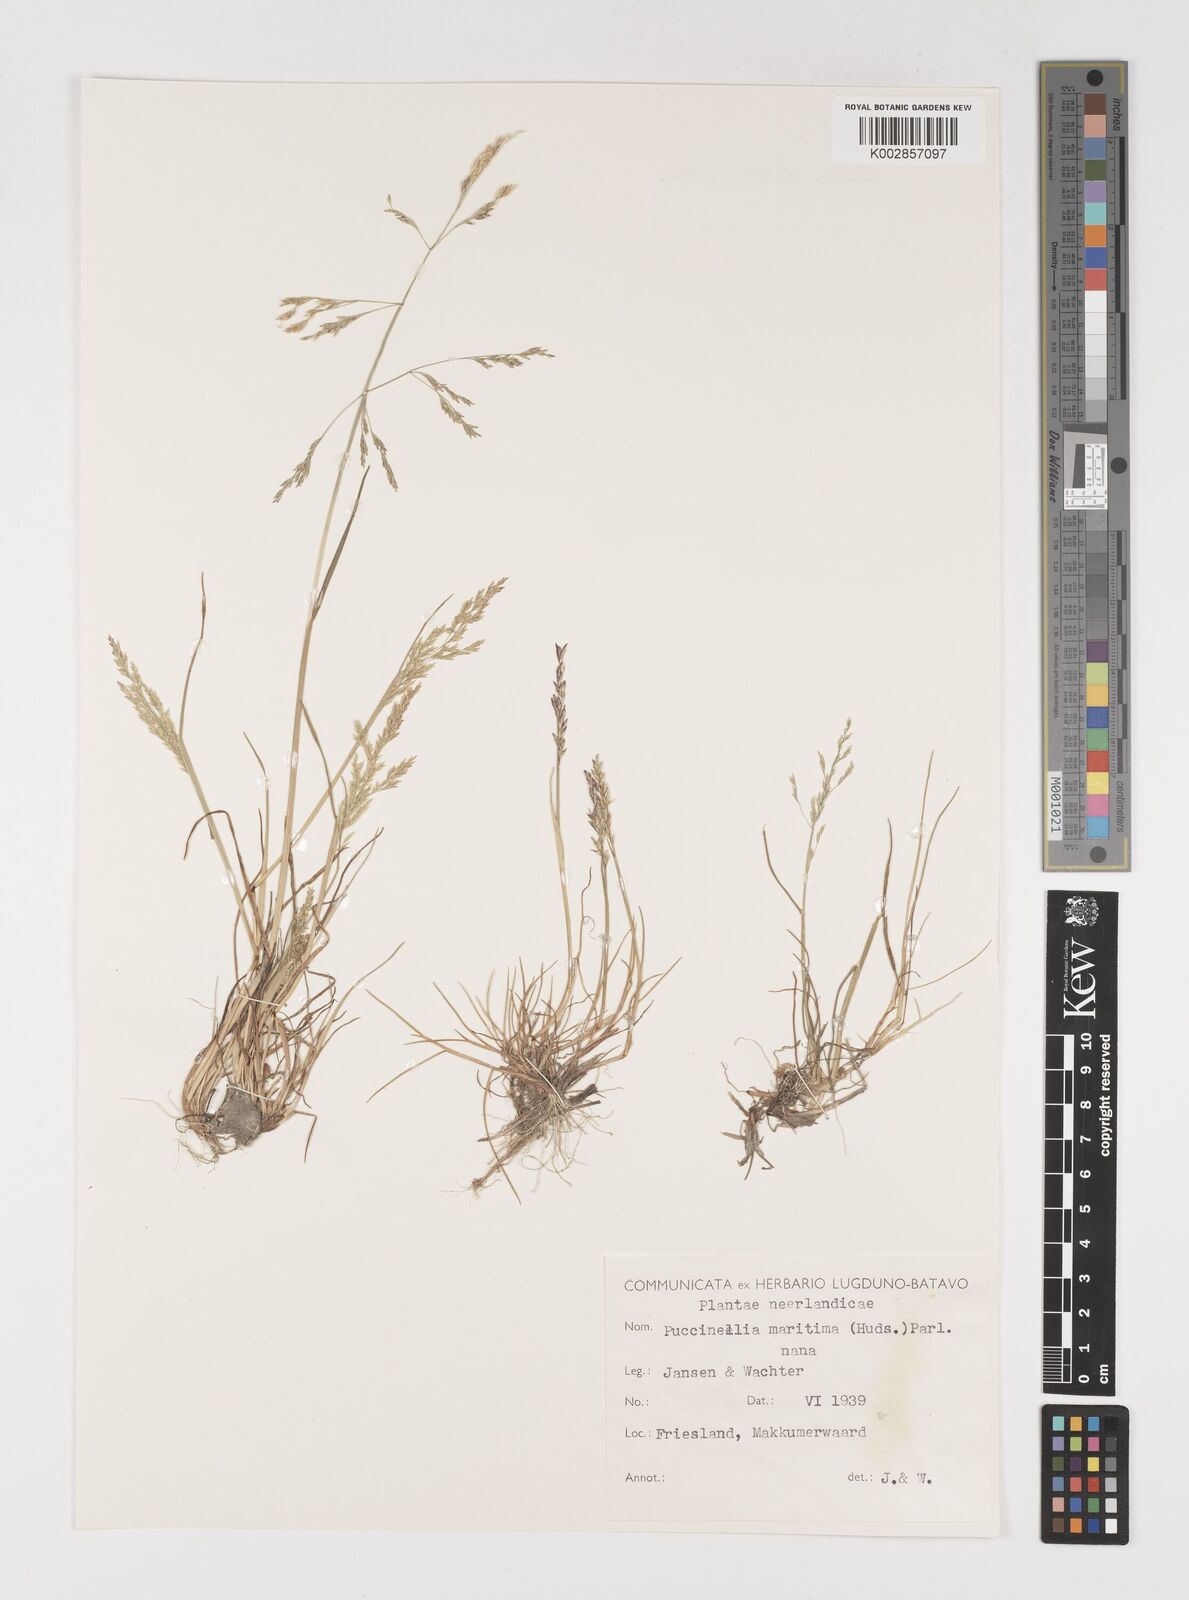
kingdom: Plantae
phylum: Tracheophyta
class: Liliopsida
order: Poales
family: Poaceae
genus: Puccinellia
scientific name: Puccinellia maritima
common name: Common saltmarsh grass
